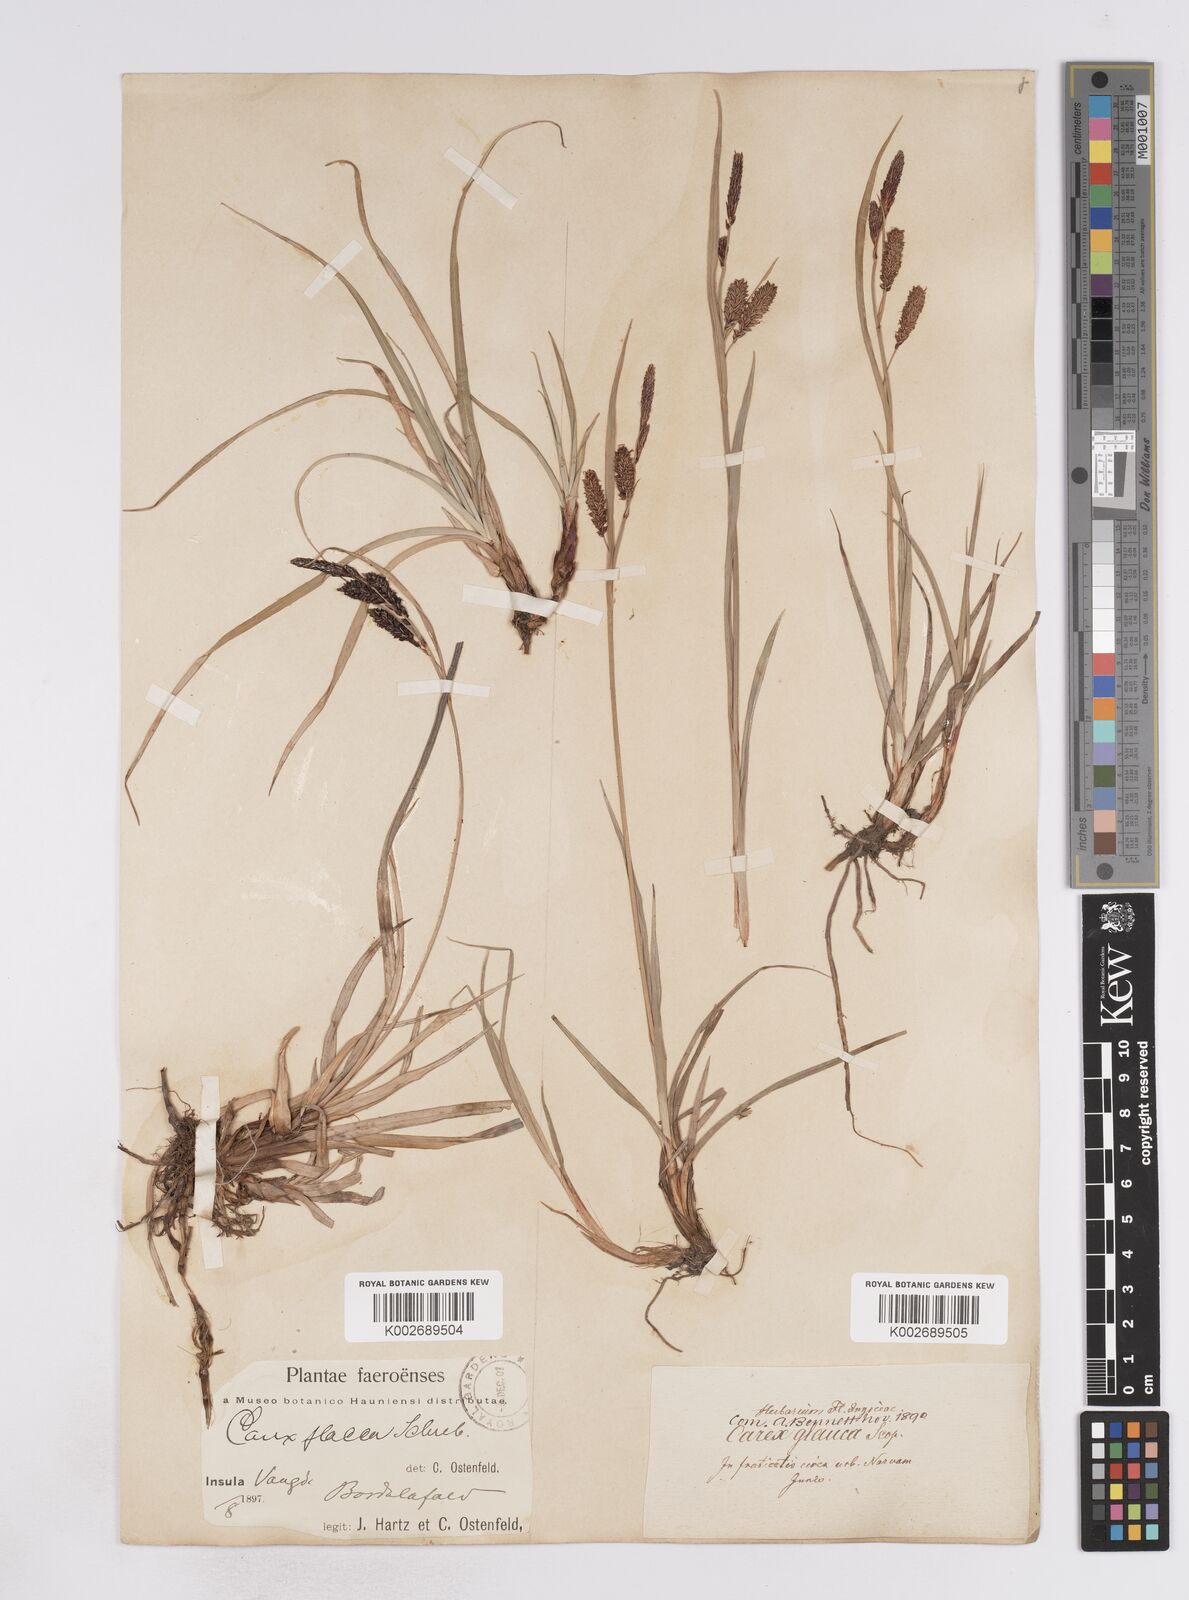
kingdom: Plantae
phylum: Tracheophyta
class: Liliopsida
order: Poales
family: Cyperaceae
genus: Carex
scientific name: Carex flacca
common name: Glaucous sedge
